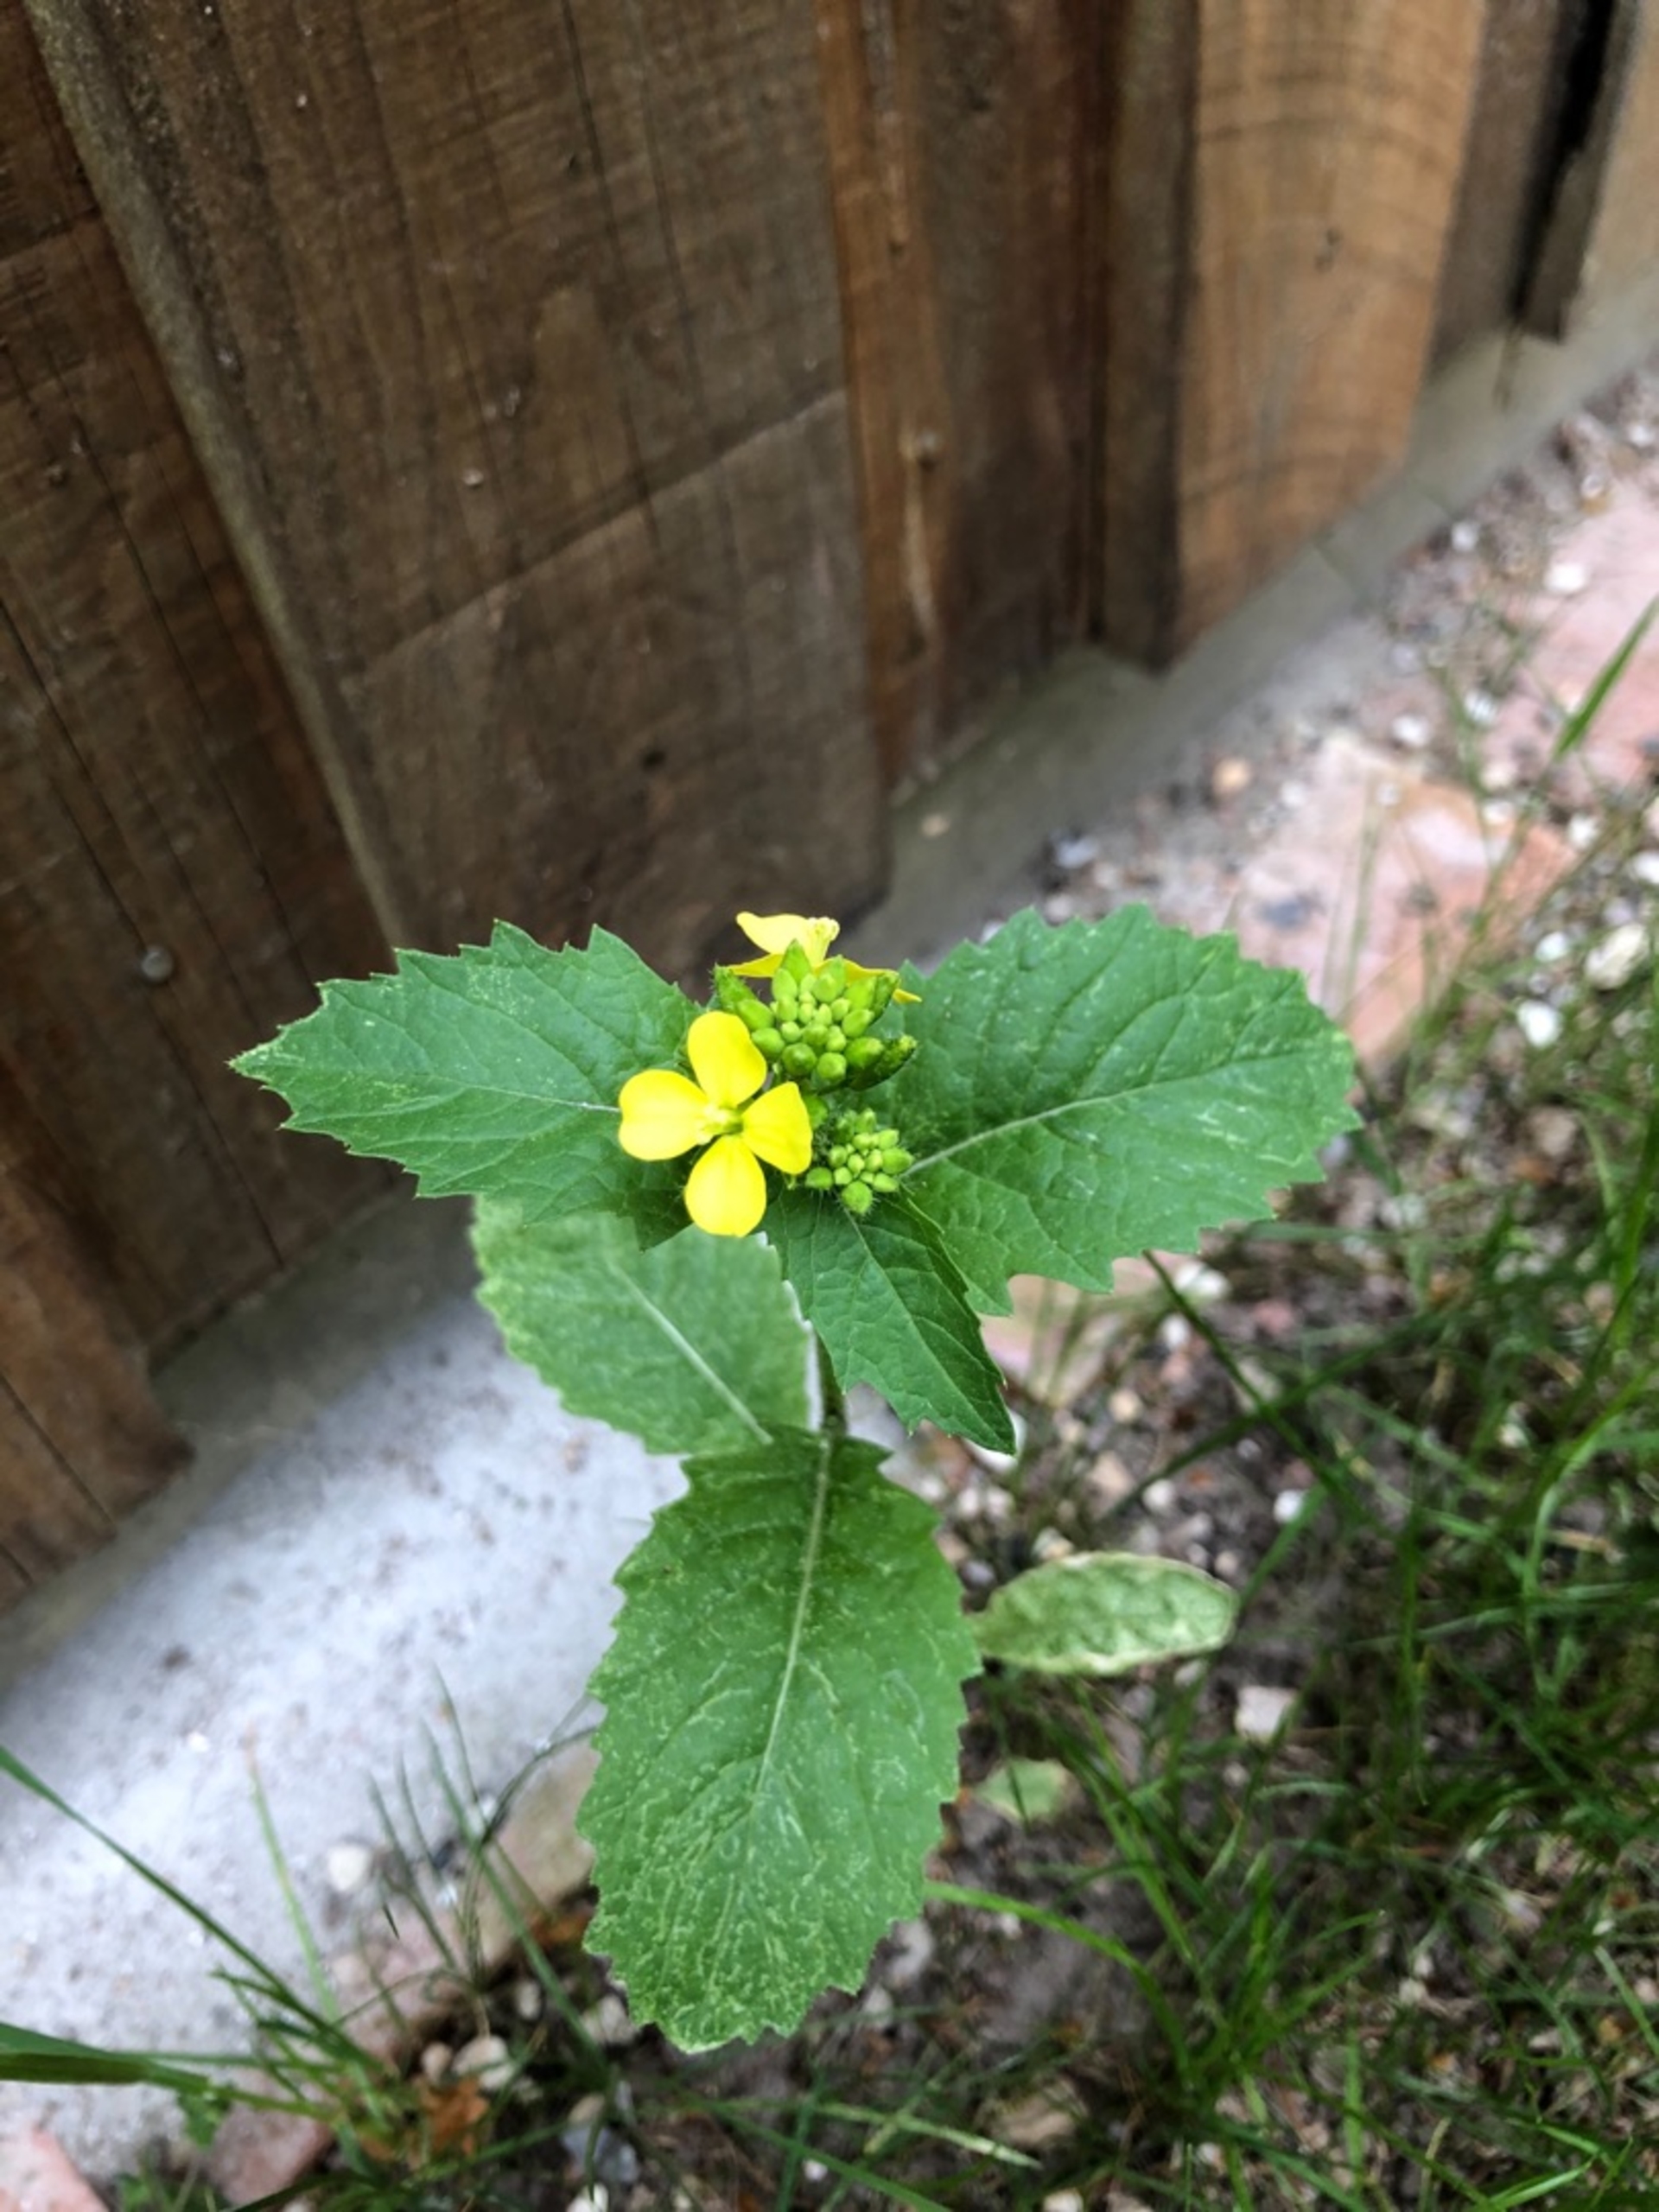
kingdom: Plantae
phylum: Tracheophyta
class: Magnoliopsida
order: Brassicales
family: Brassicaceae
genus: Sinapis
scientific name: Sinapis arvensis
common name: Ager-sennep
